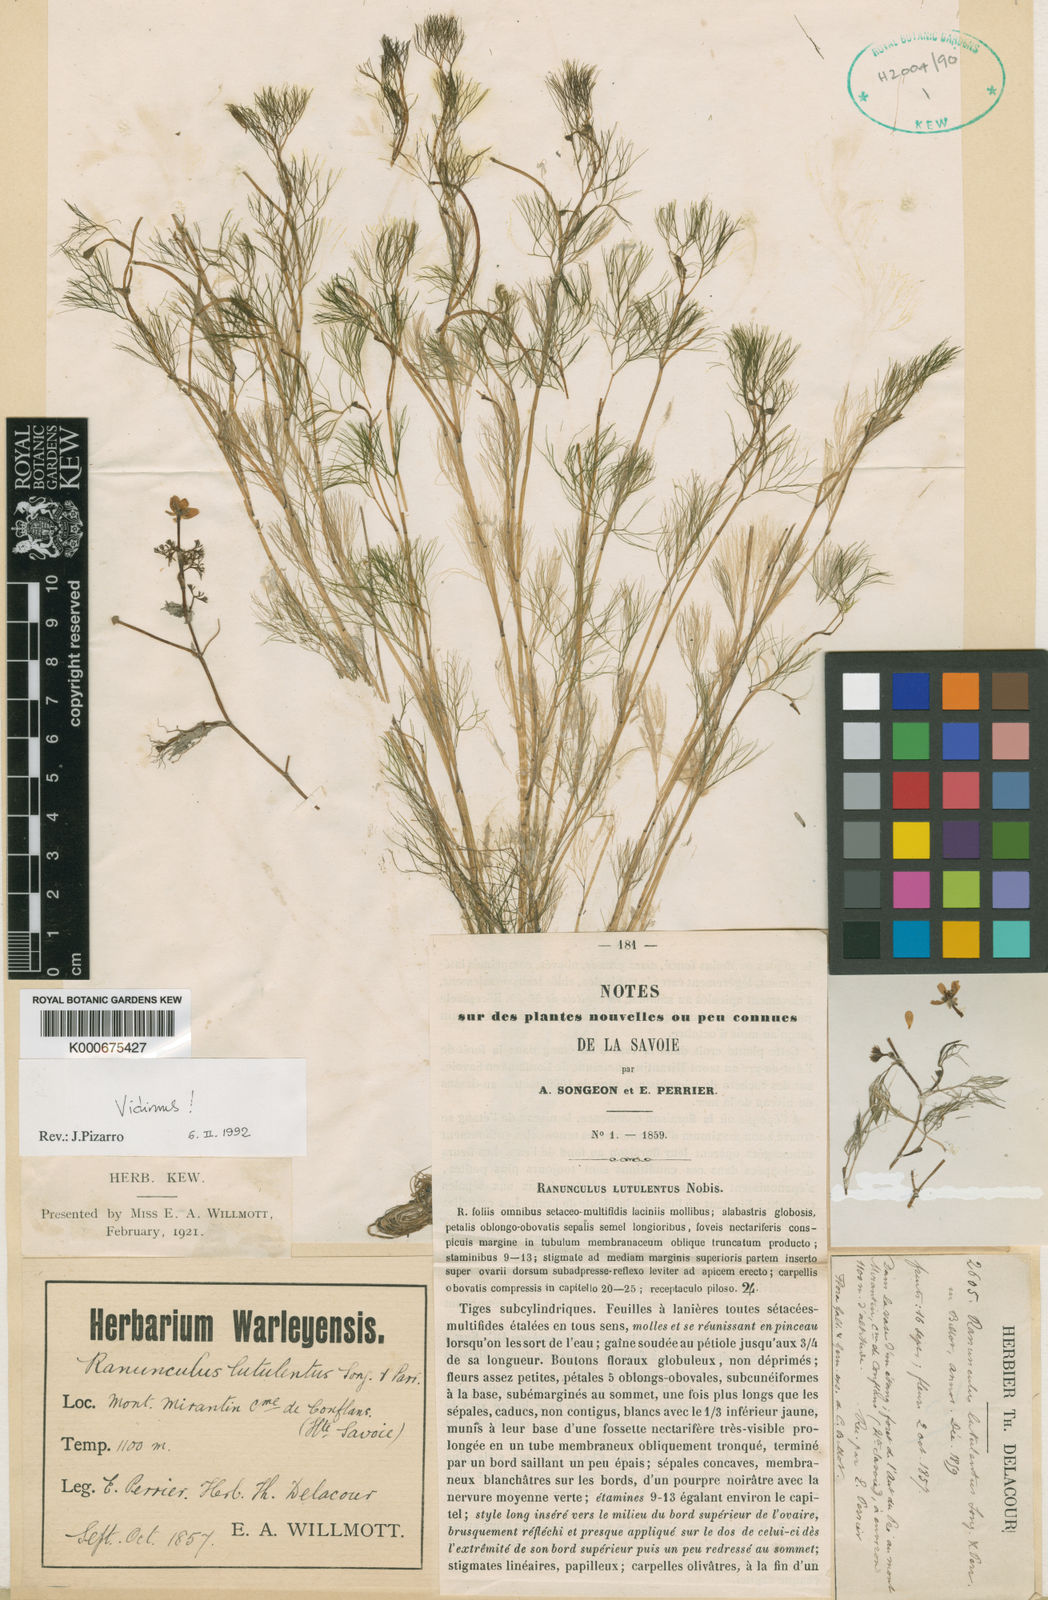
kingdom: Plantae
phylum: Tracheophyta
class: Magnoliopsida
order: Ranunculales
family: Ranunculaceae
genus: Ranunculus
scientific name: Ranunculus
